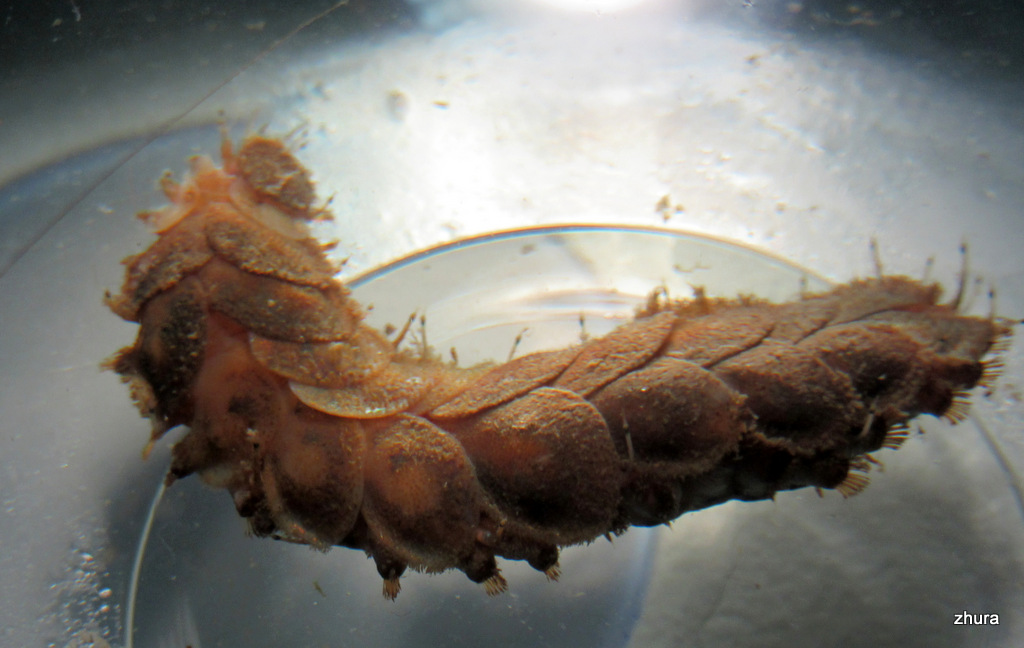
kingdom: Animalia
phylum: Annelida
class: Polychaeta
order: Phyllodocida
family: Polynoidae
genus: Lepidonotus
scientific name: Lepidonotus squamatus
